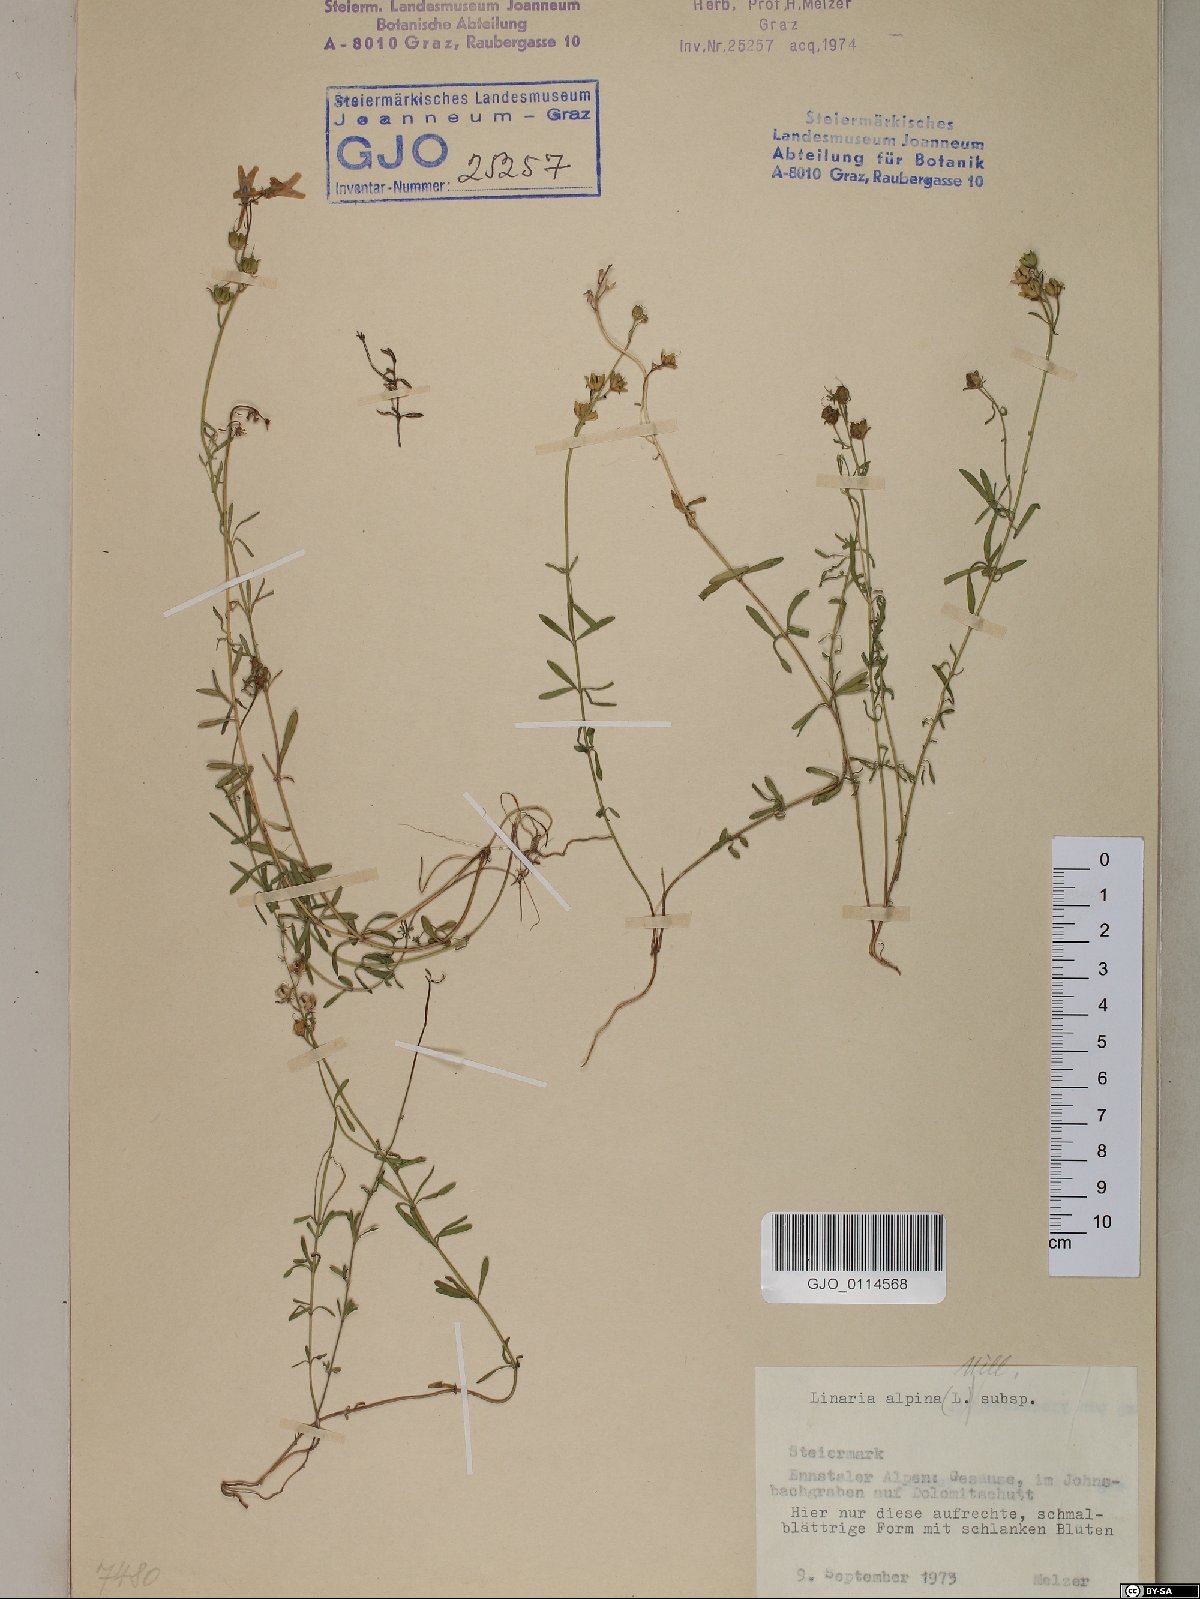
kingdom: Plantae
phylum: Tracheophyta
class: Magnoliopsida
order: Lamiales
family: Plantaginaceae
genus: Linaria
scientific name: Linaria alpina
